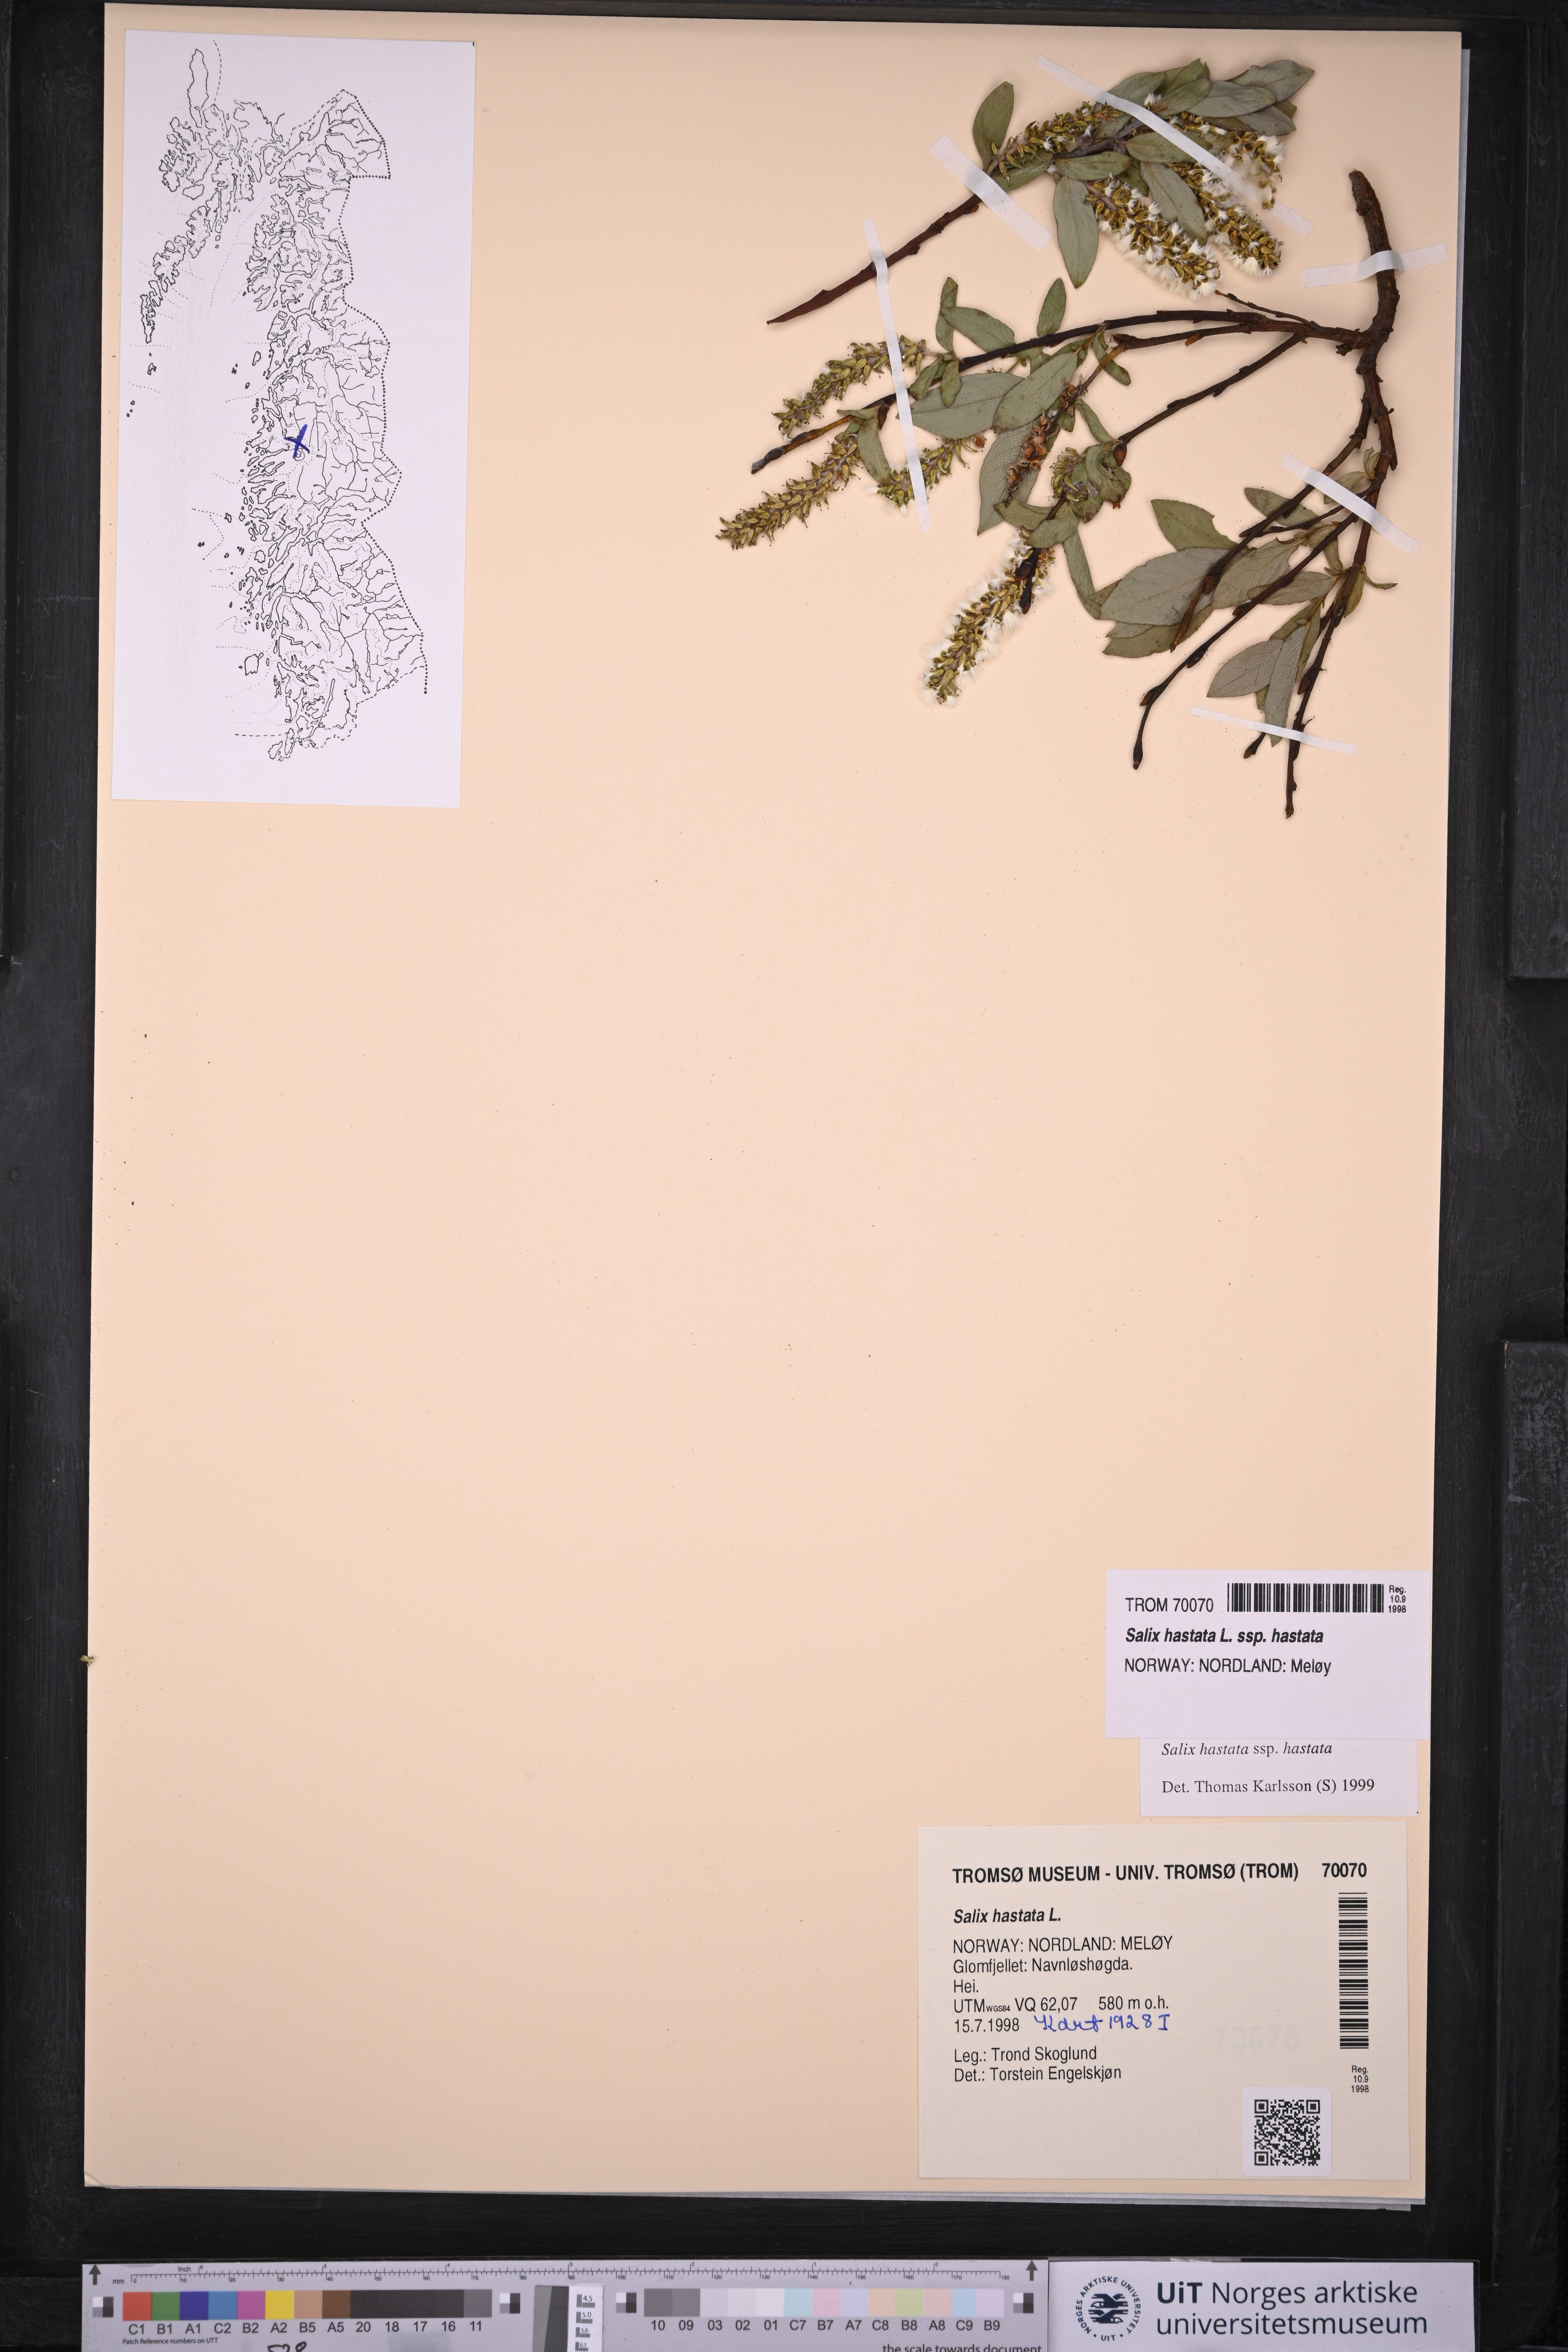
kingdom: Plantae
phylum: Tracheophyta
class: Magnoliopsida
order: Malpighiales
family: Salicaceae
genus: Salix
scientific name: Salix hastata
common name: Halberd willow
